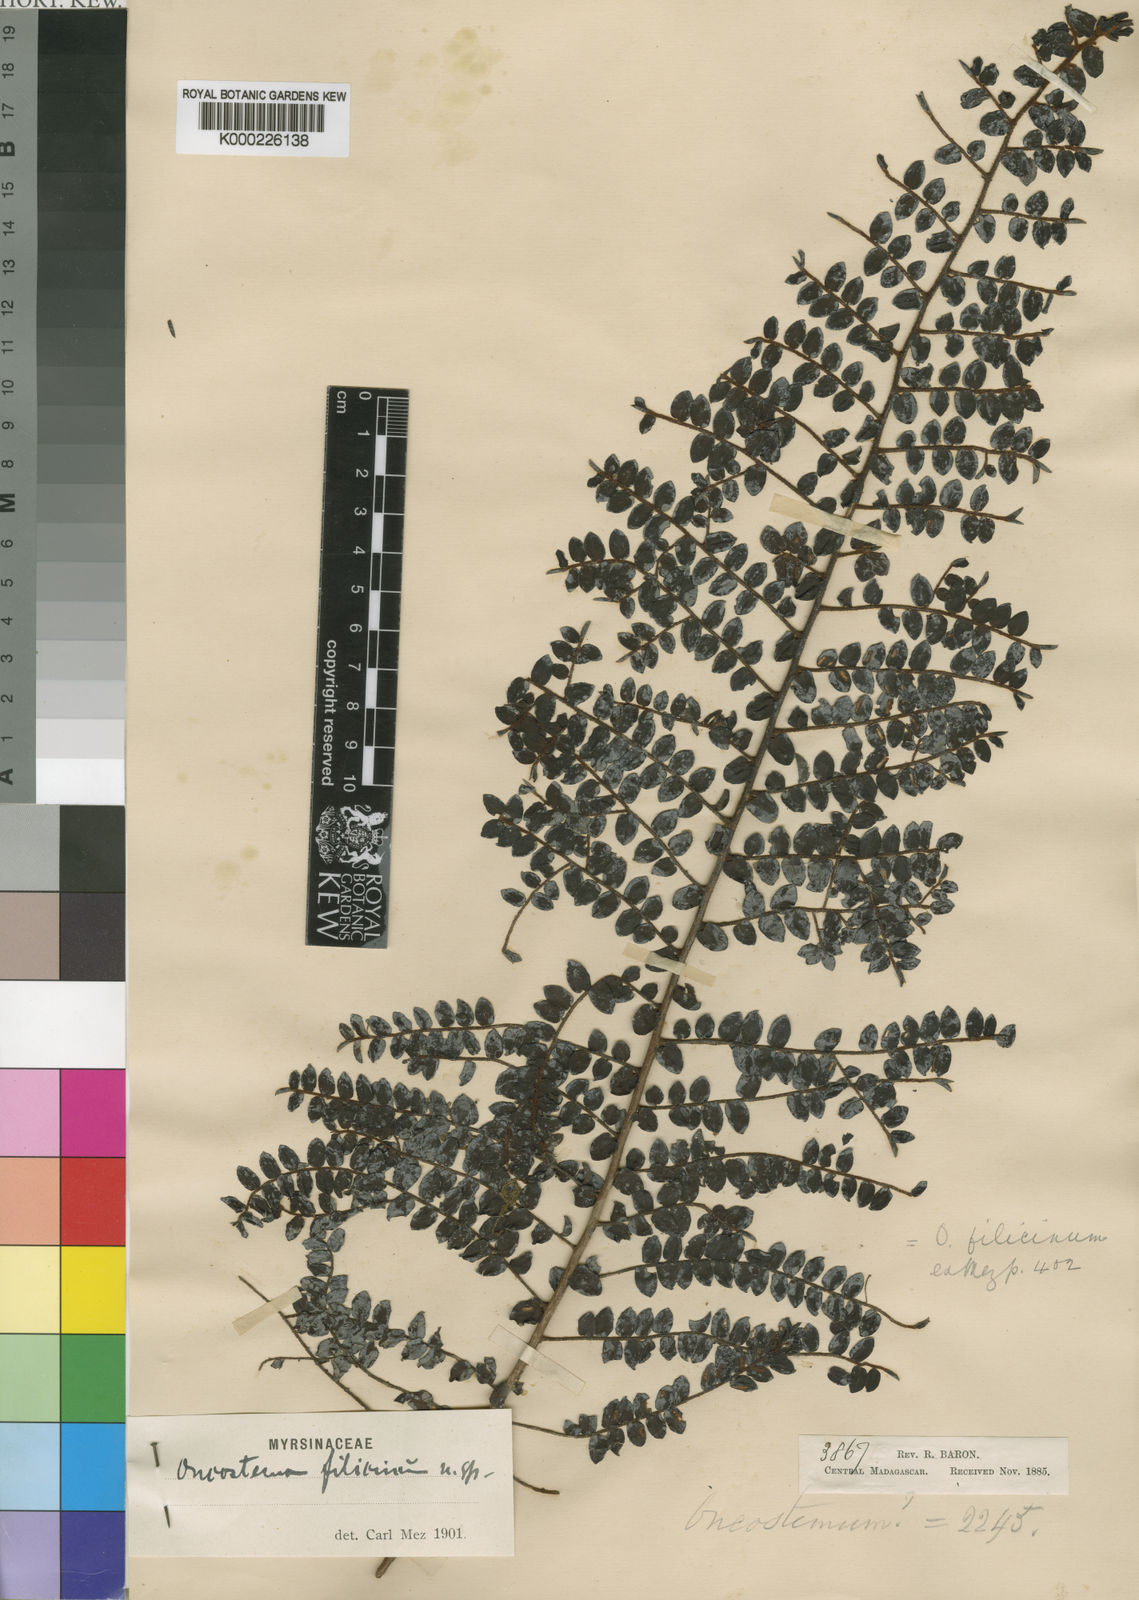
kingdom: Plantae
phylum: Tracheophyta
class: Magnoliopsida
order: Ericales
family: Primulaceae
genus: Oncostemum
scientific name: Oncostemum filicinum
